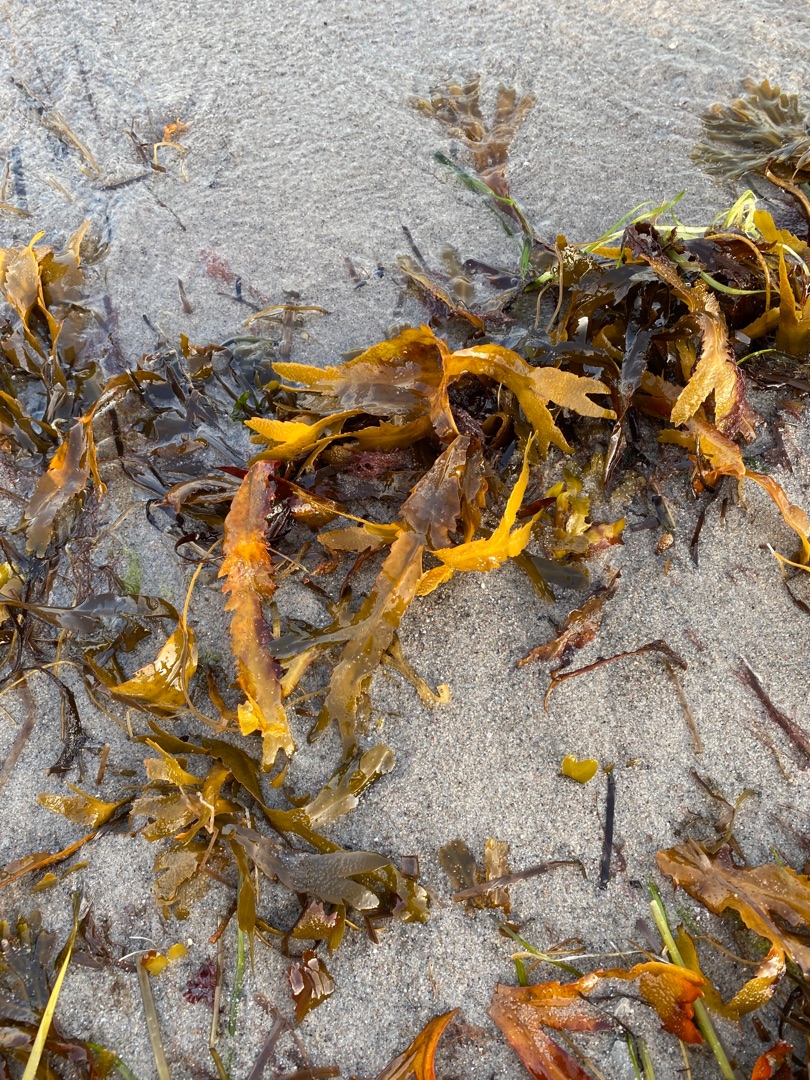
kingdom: Chromista
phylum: Ochrophyta
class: Phaeophyceae
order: Fucales
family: Fucaceae
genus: Fucus
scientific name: Fucus serratus
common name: Savtang
